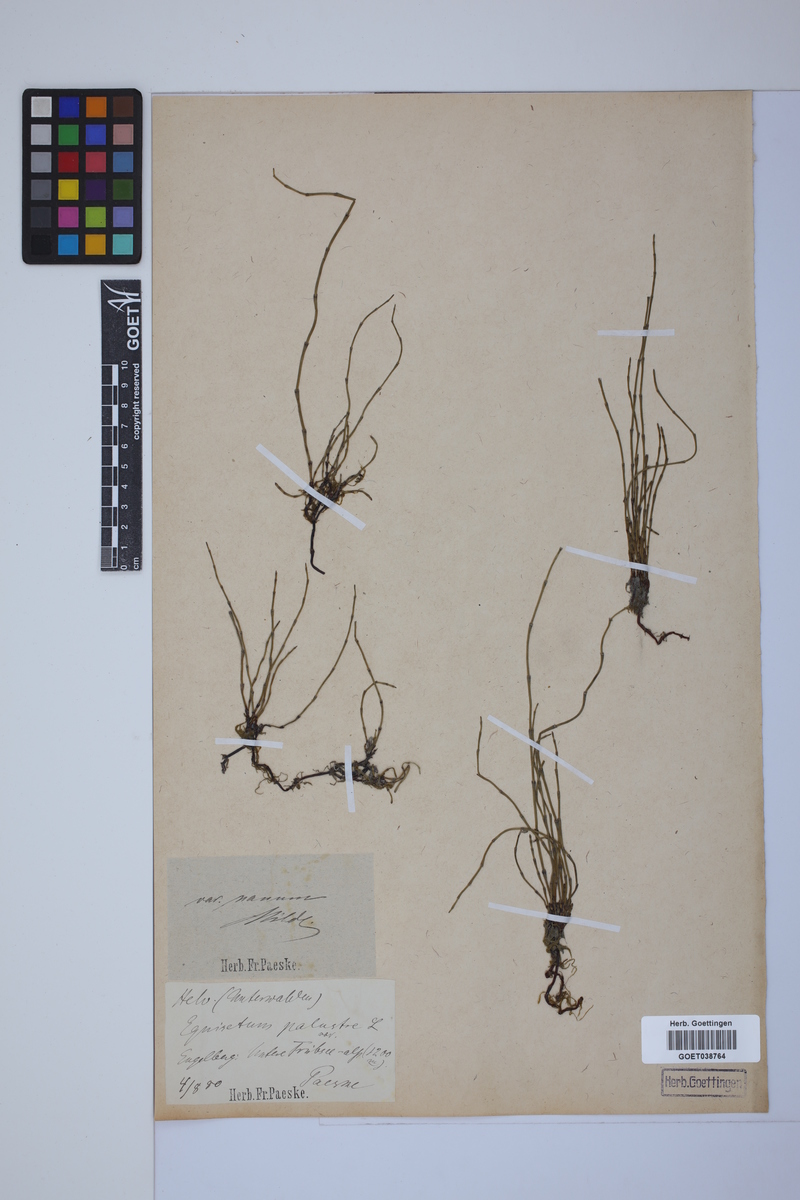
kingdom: Plantae
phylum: Tracheophyta
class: Polypodiopsida
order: Equisetales
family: Equisetaceae
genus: Equisetum
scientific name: Equisetum palustre
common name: Marsh horsetail
